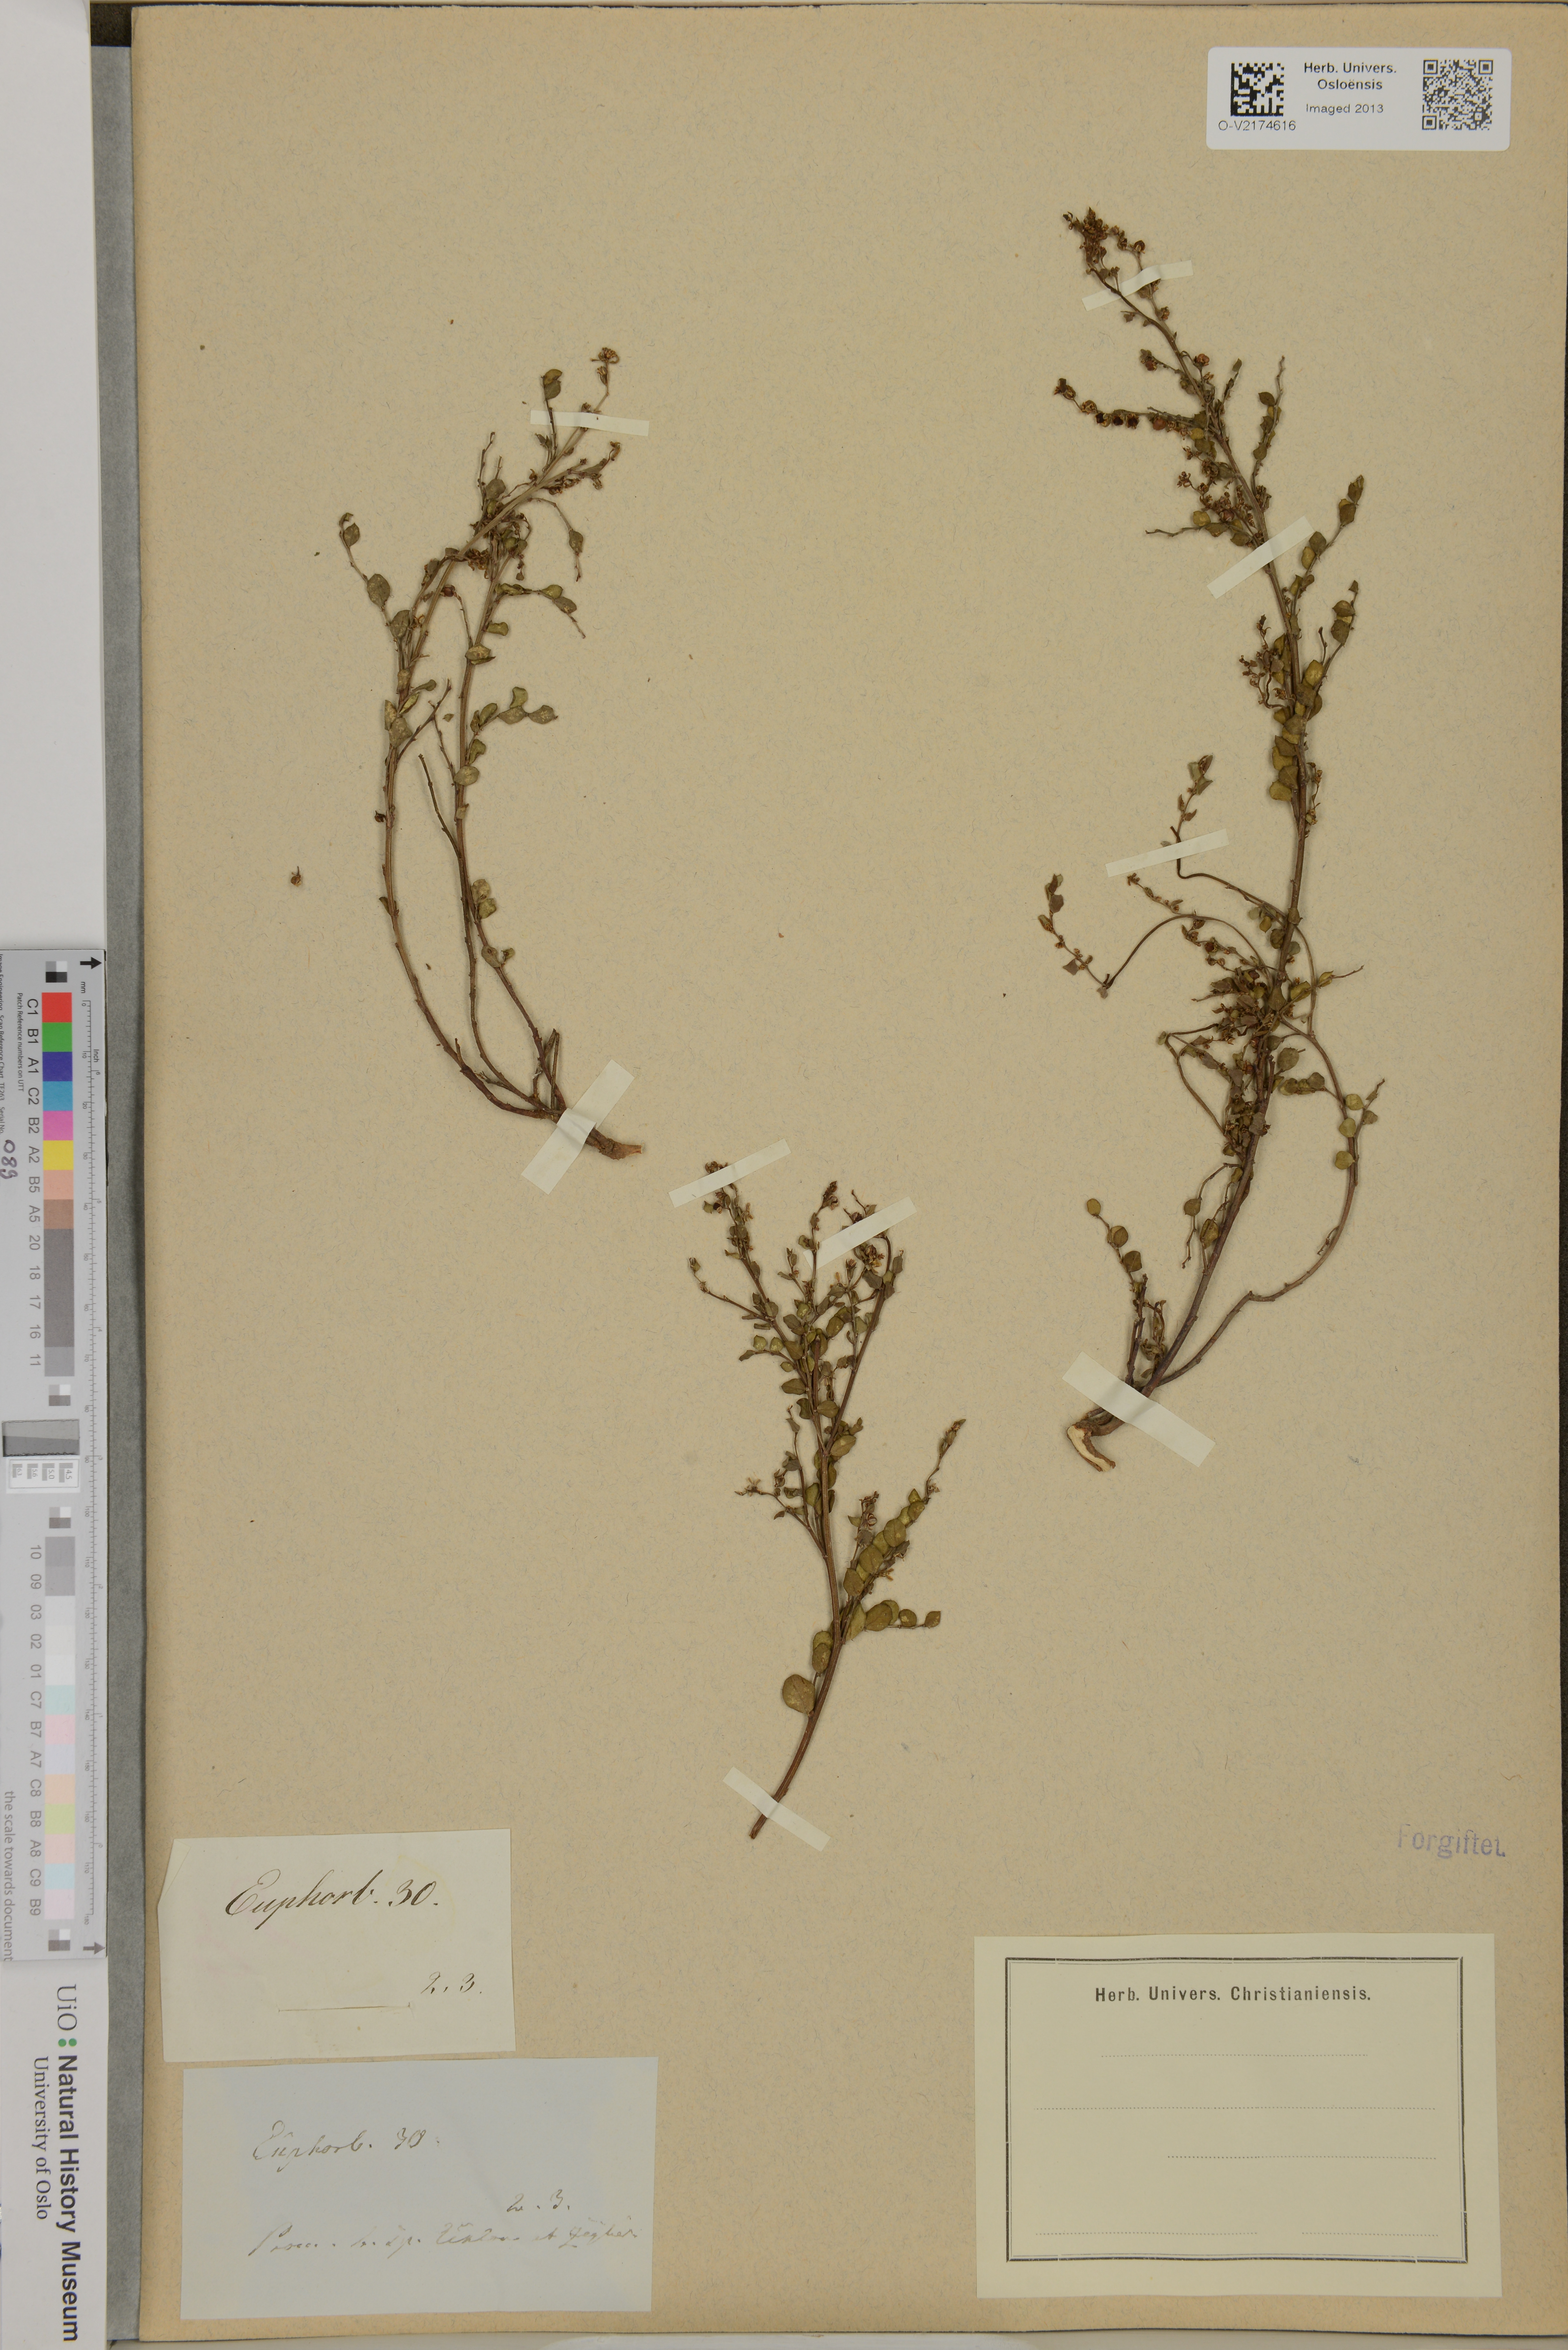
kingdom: Plantae
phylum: Tracheophyta
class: Magnoliopsida
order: Malpighiales
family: Euphorbiaceae
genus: Euphorbia
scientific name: Euphorbia
